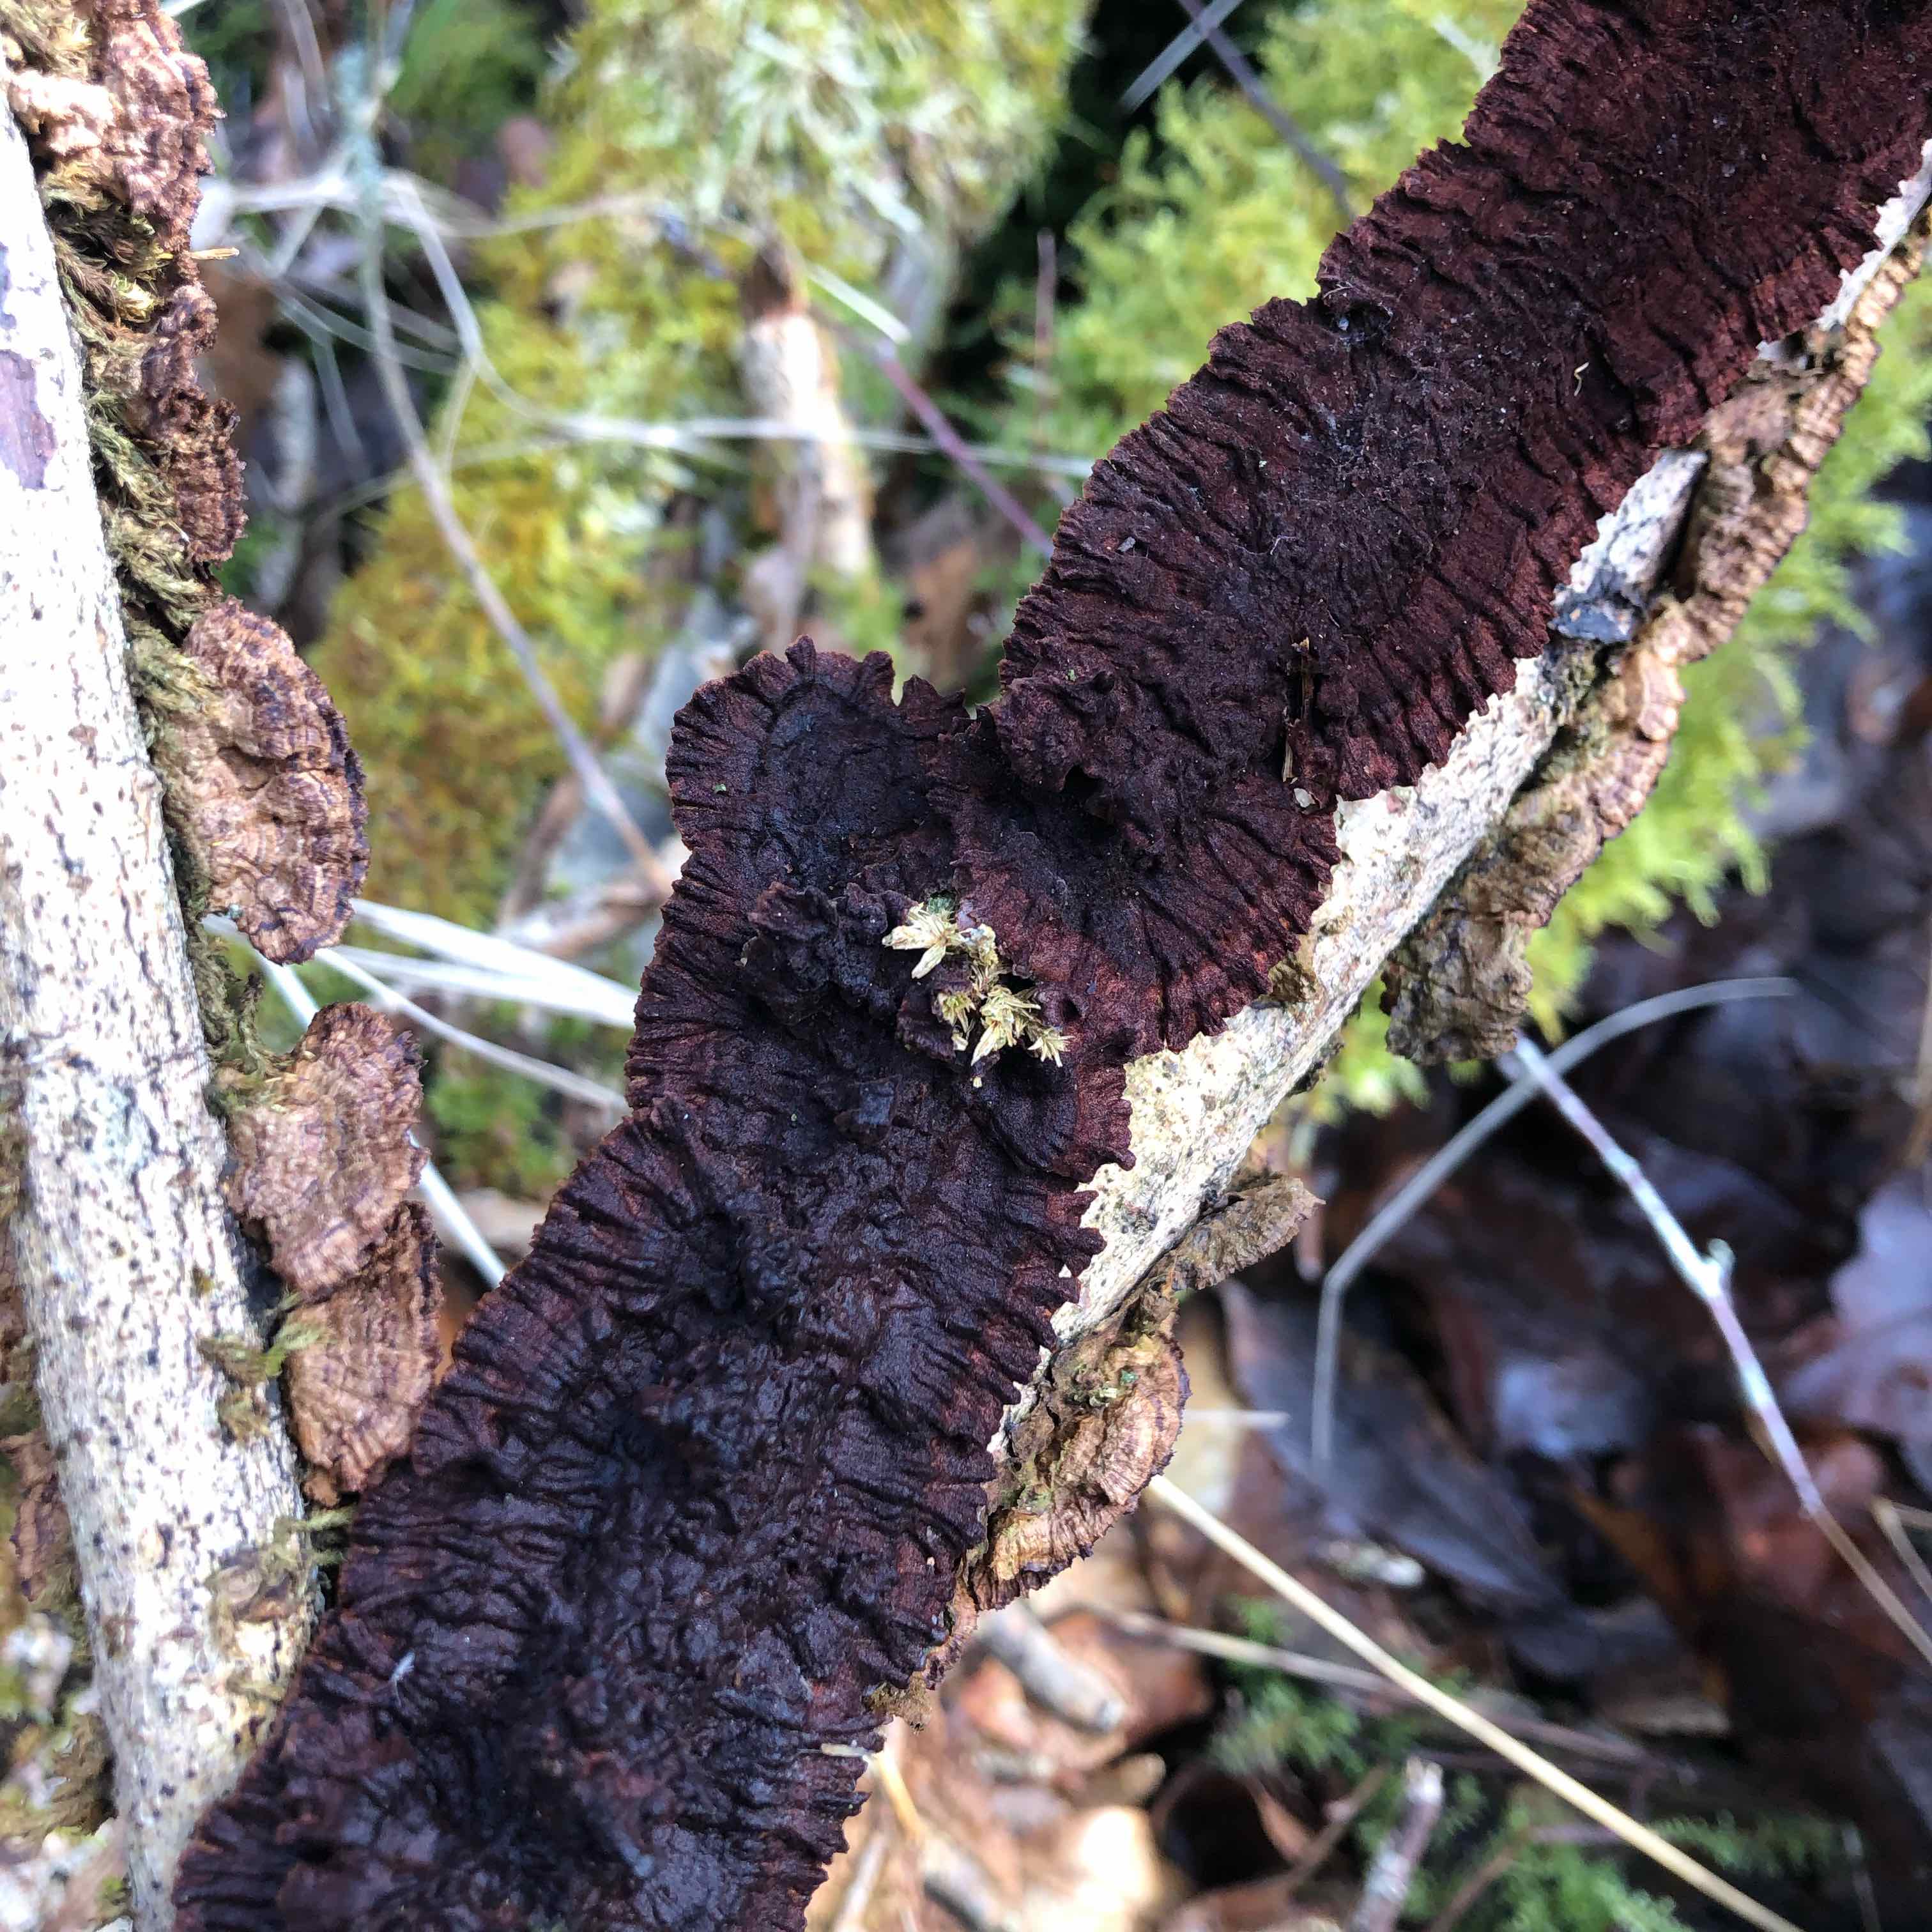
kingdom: Fungi
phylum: Basidiomycota
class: Agaricomycetes
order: Hymenochaetales
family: Hymenochaetaceae
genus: Hydnoporia
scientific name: Hydnoporia tabacina
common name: tobaksbrun ruslædersvamp
